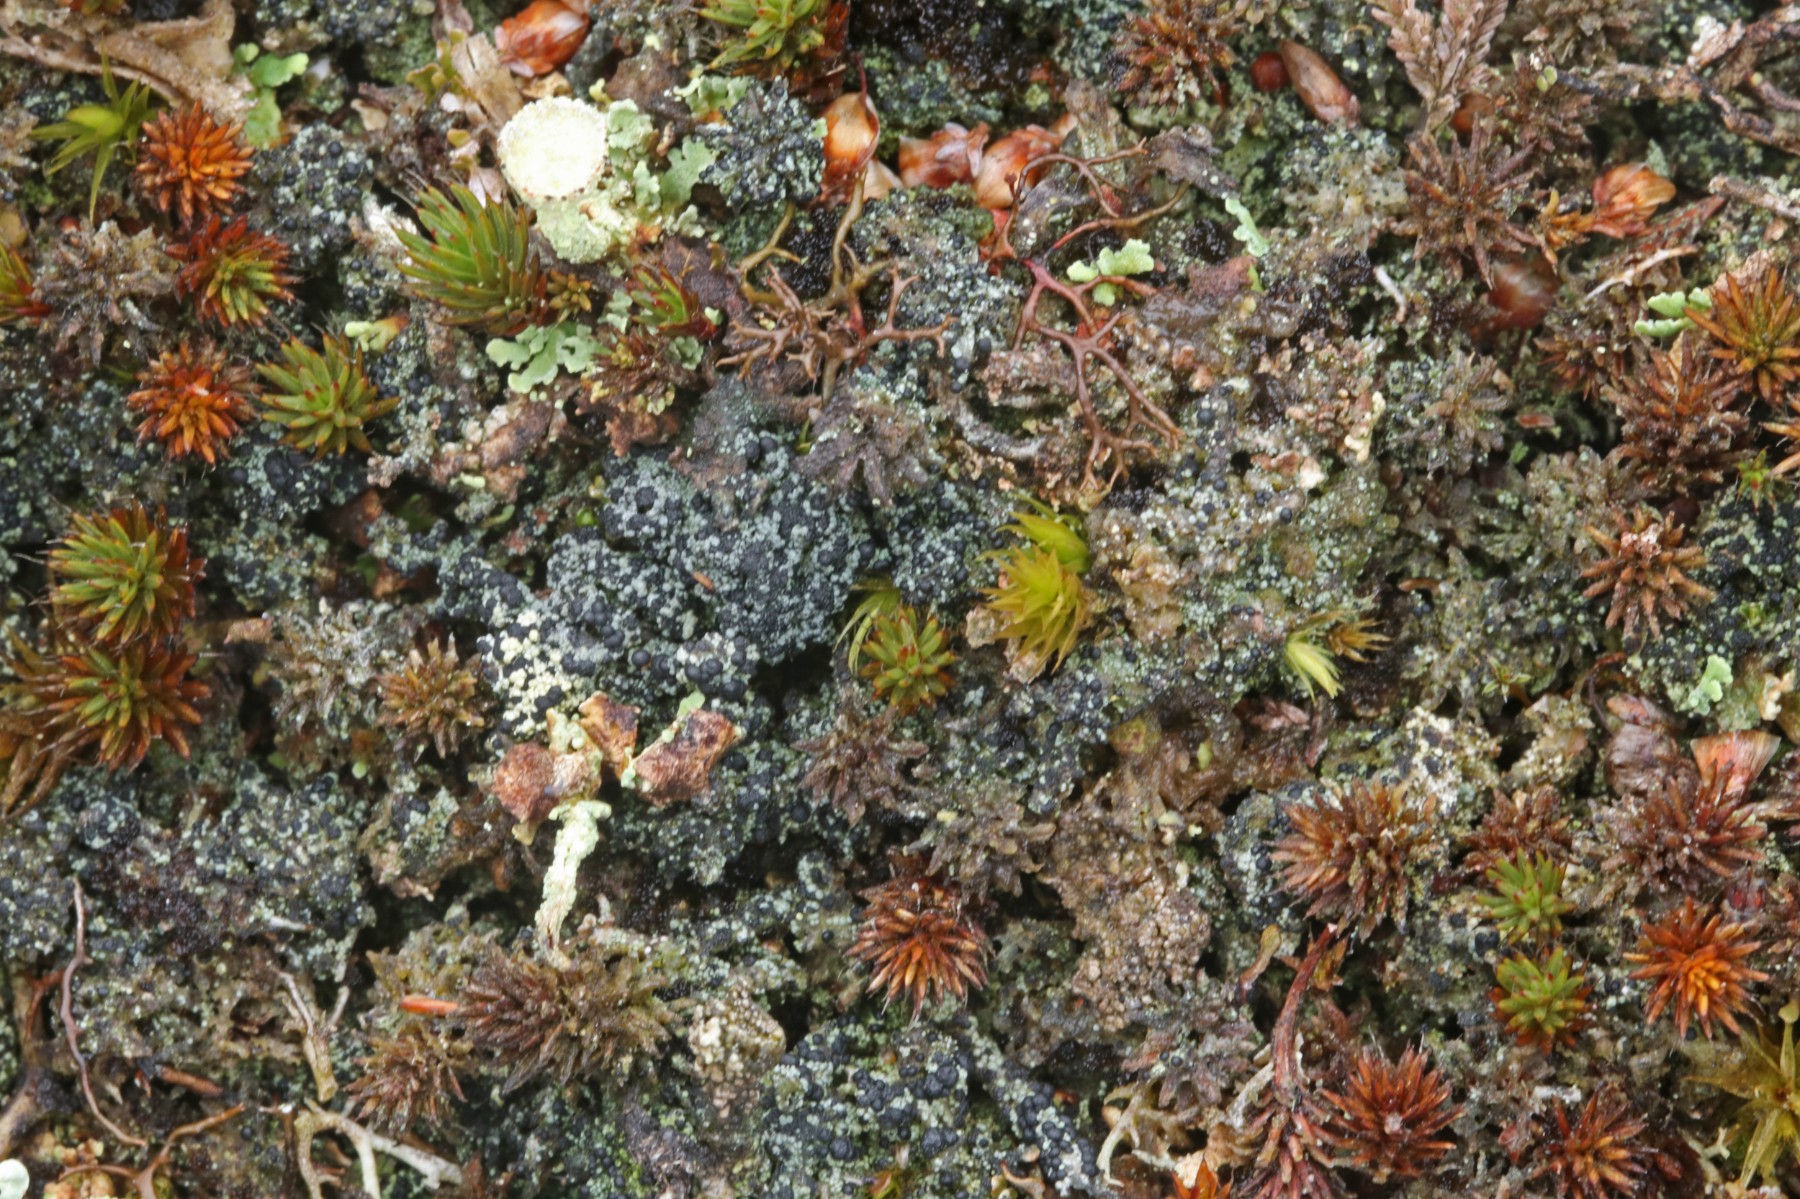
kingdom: Fungi
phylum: Ascomycota
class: Lecanoromycetes
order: Lecanorales
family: Byssolomataceae
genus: Micarea
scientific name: Micarea lignaria
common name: tørve-knaplav
